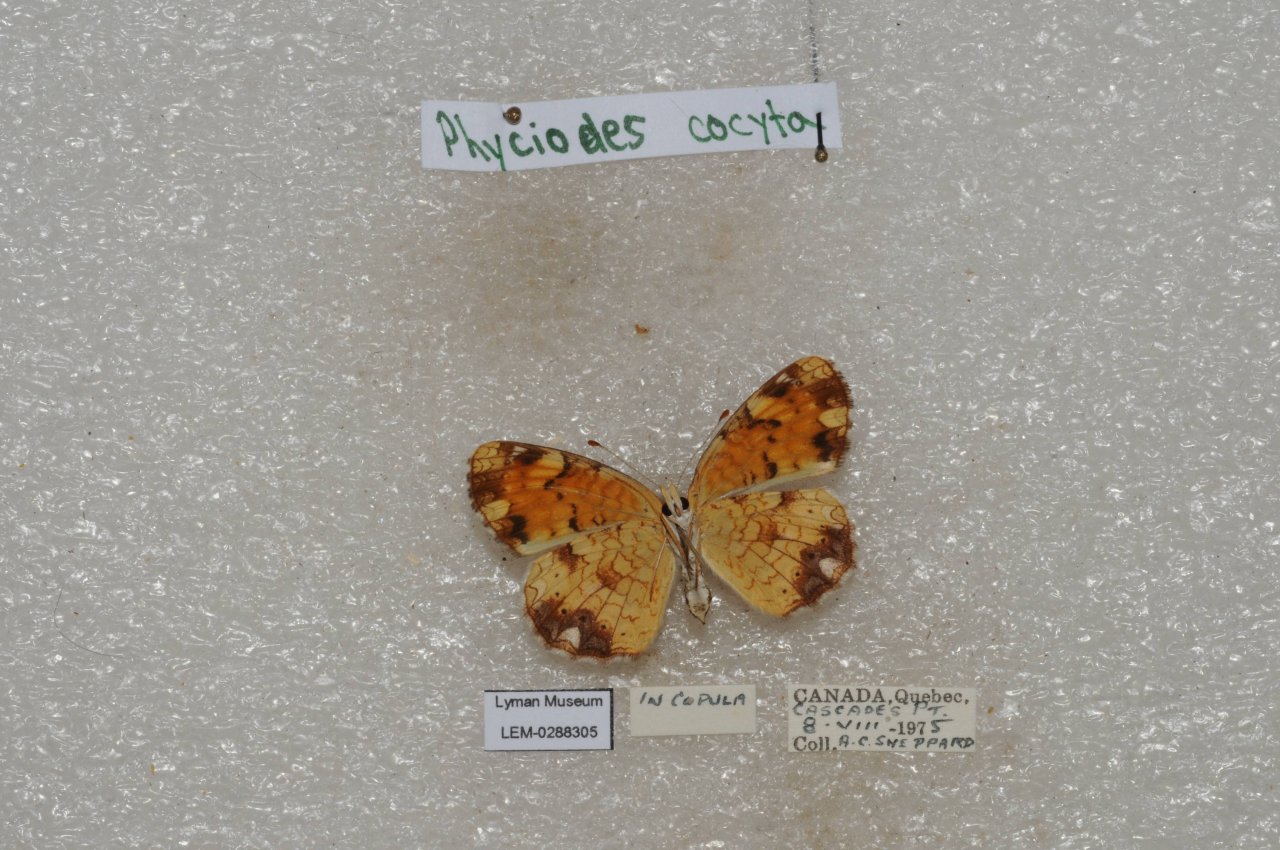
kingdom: Animalia
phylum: Arthropoda
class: Insecta
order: Lepidoptera
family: Nymphalidae
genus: Phyciodes
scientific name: Phyciodes tharos
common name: Northern Crescent
